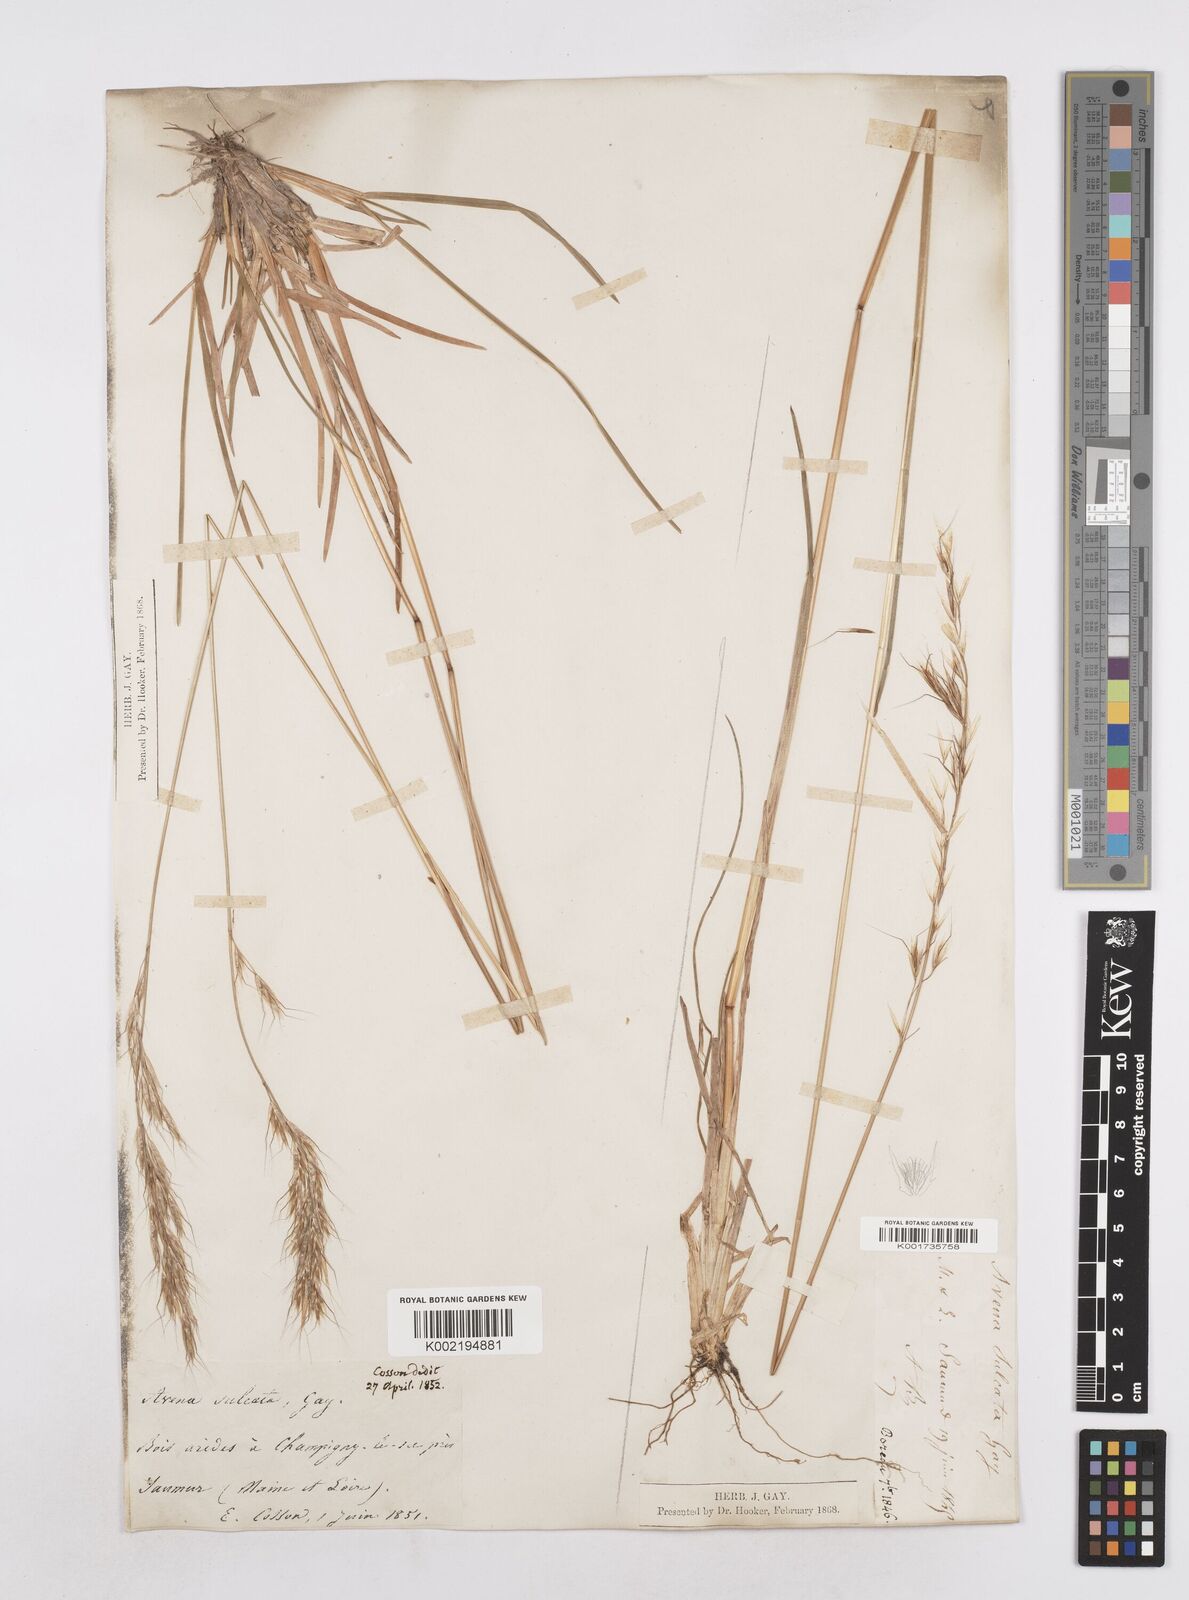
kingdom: Plantae
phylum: Tracheophyta
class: Liliopsida
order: Poales
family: Poaceae
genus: Helictotrichon
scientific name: Helictotrichon
